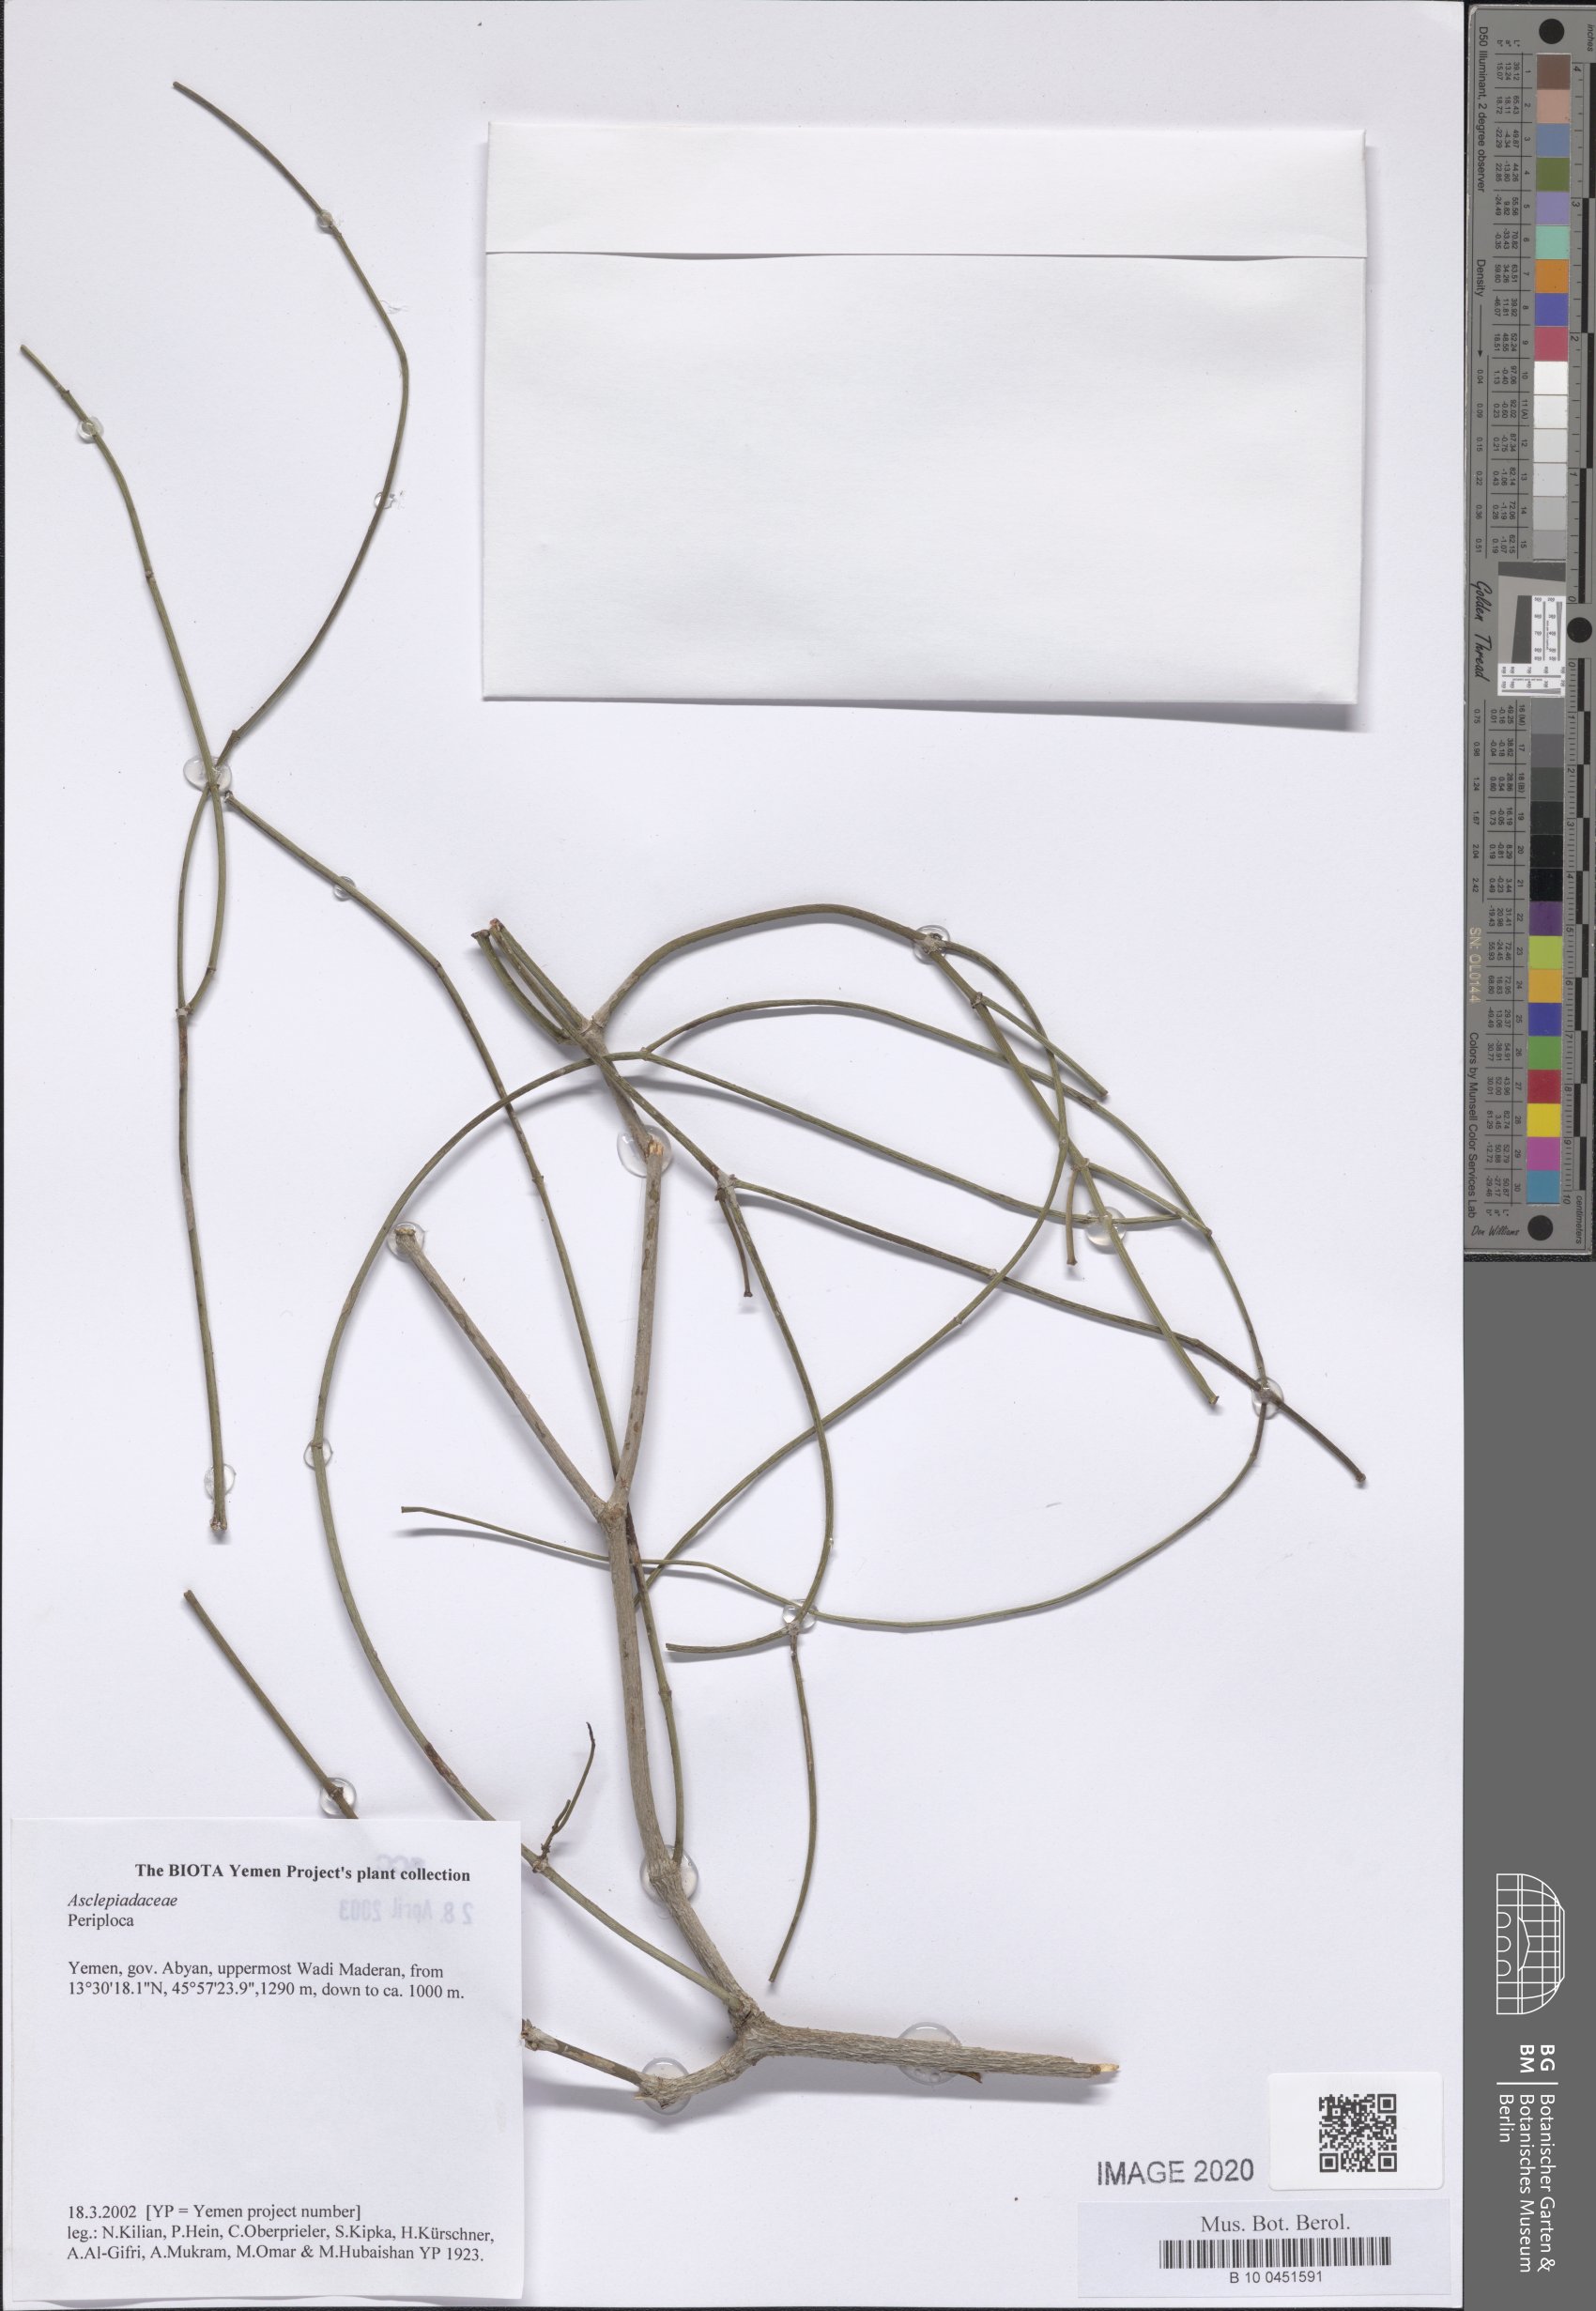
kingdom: Plantae
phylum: Tracheophyta
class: Magnoliopsida
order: Gentianales
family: Apocynaceae
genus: Periploca
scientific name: Periploca visciformis
